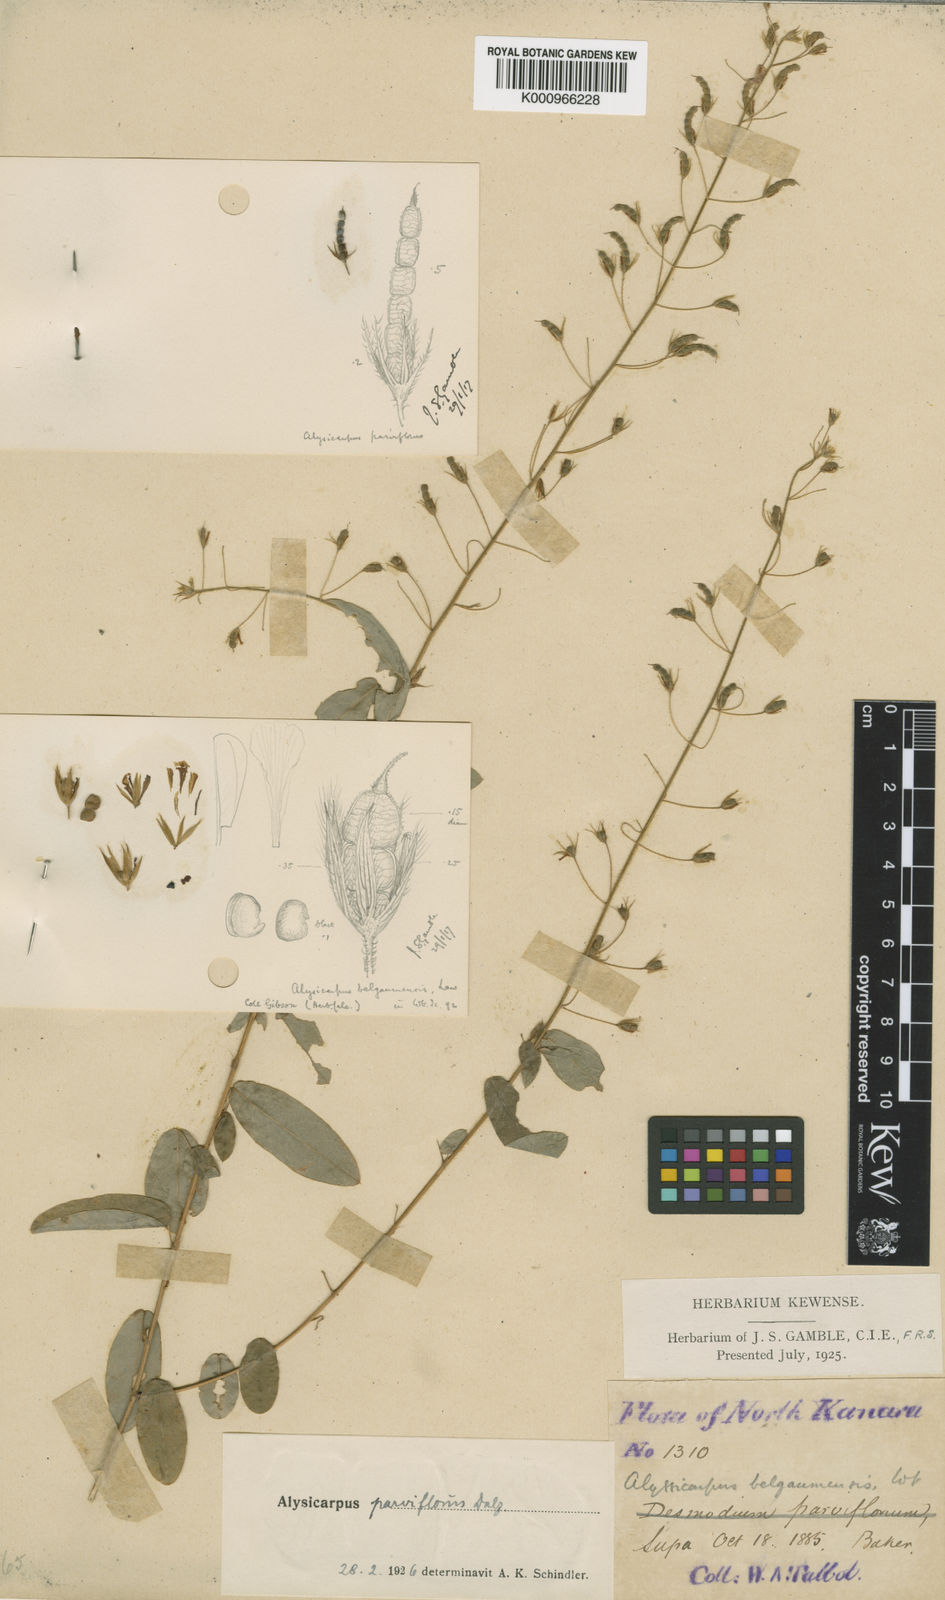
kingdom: Plantae
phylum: Tracheophyta
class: Magnoliopsida
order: Fabales
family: Fabaceae
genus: Alysicarpus
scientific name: Alysicarpus parviflorus
